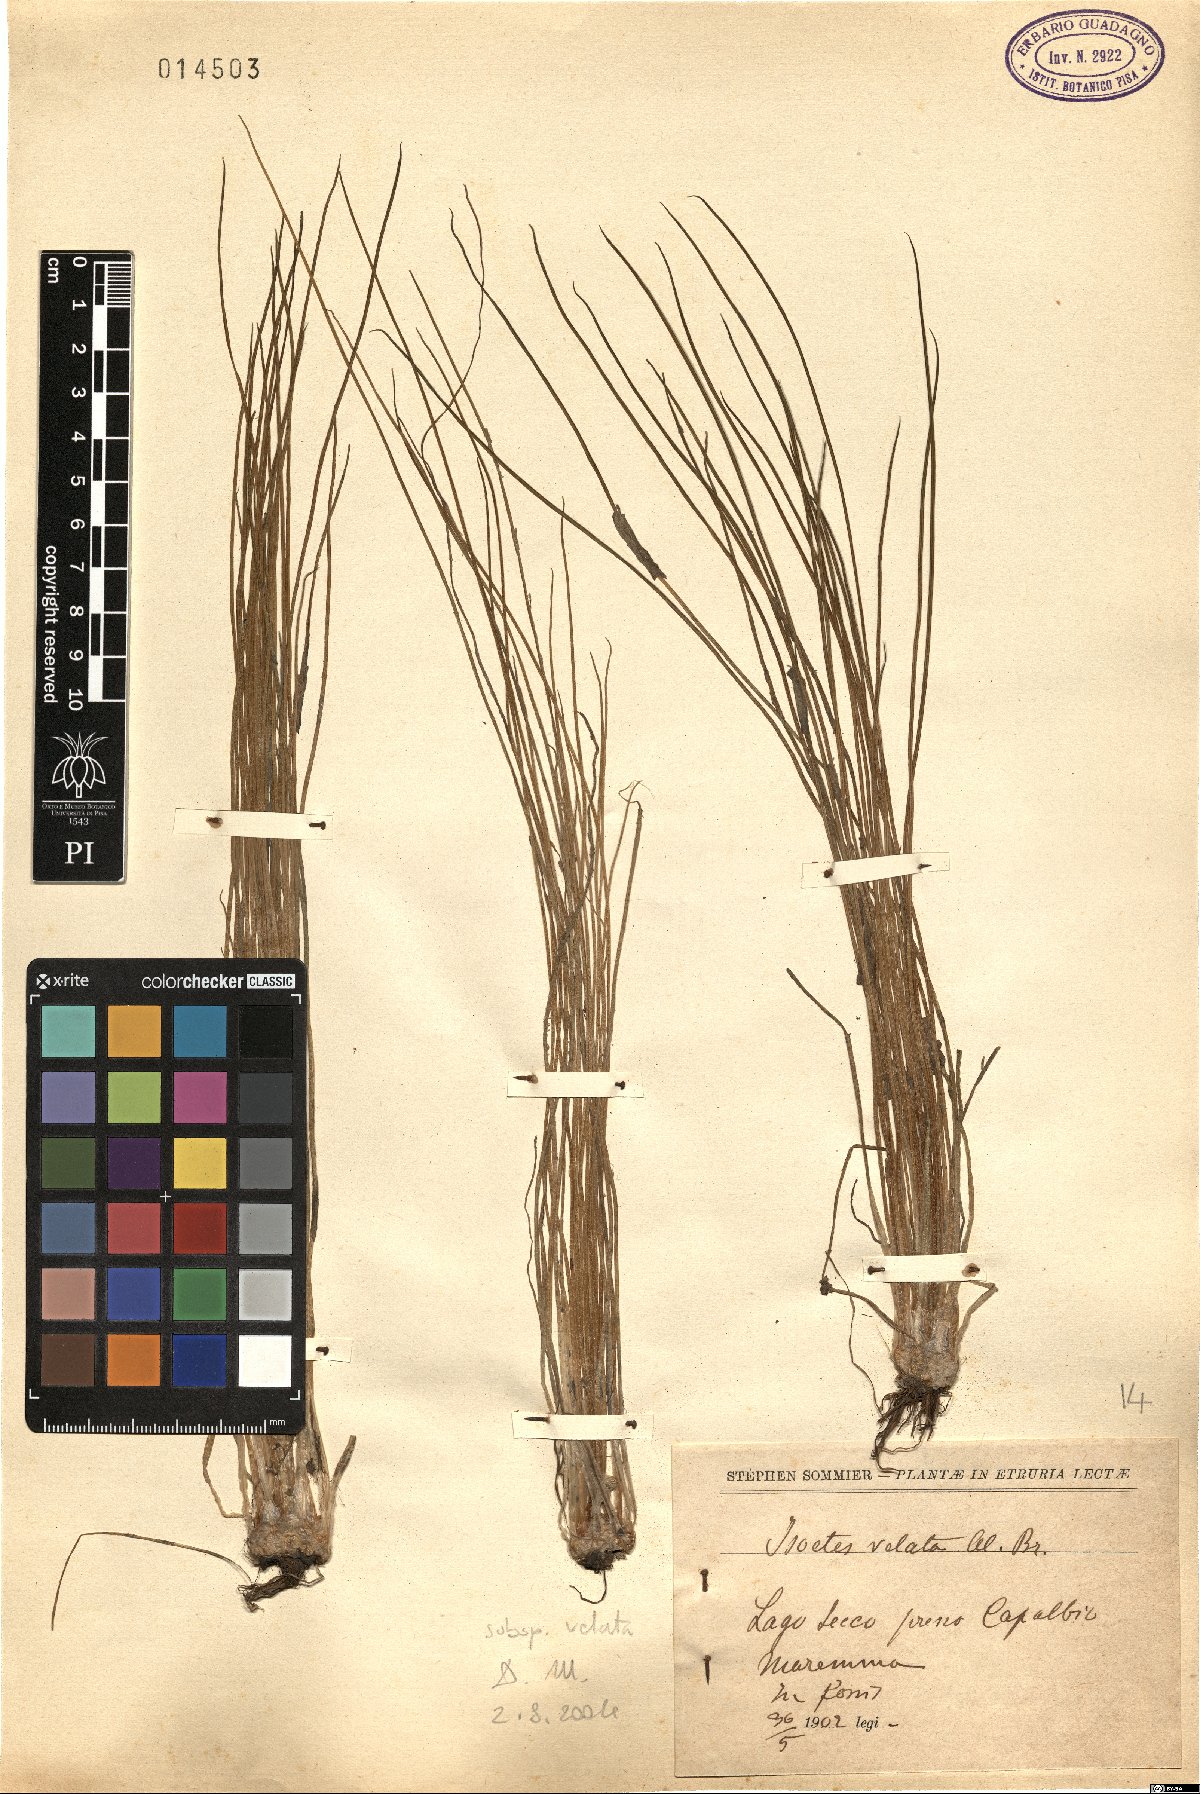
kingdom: Plantae
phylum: Tracheophyta
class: Lycopodiopsida
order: Isoetales
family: Isoetaceae
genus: Isoetes
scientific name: Isoetes longissima
